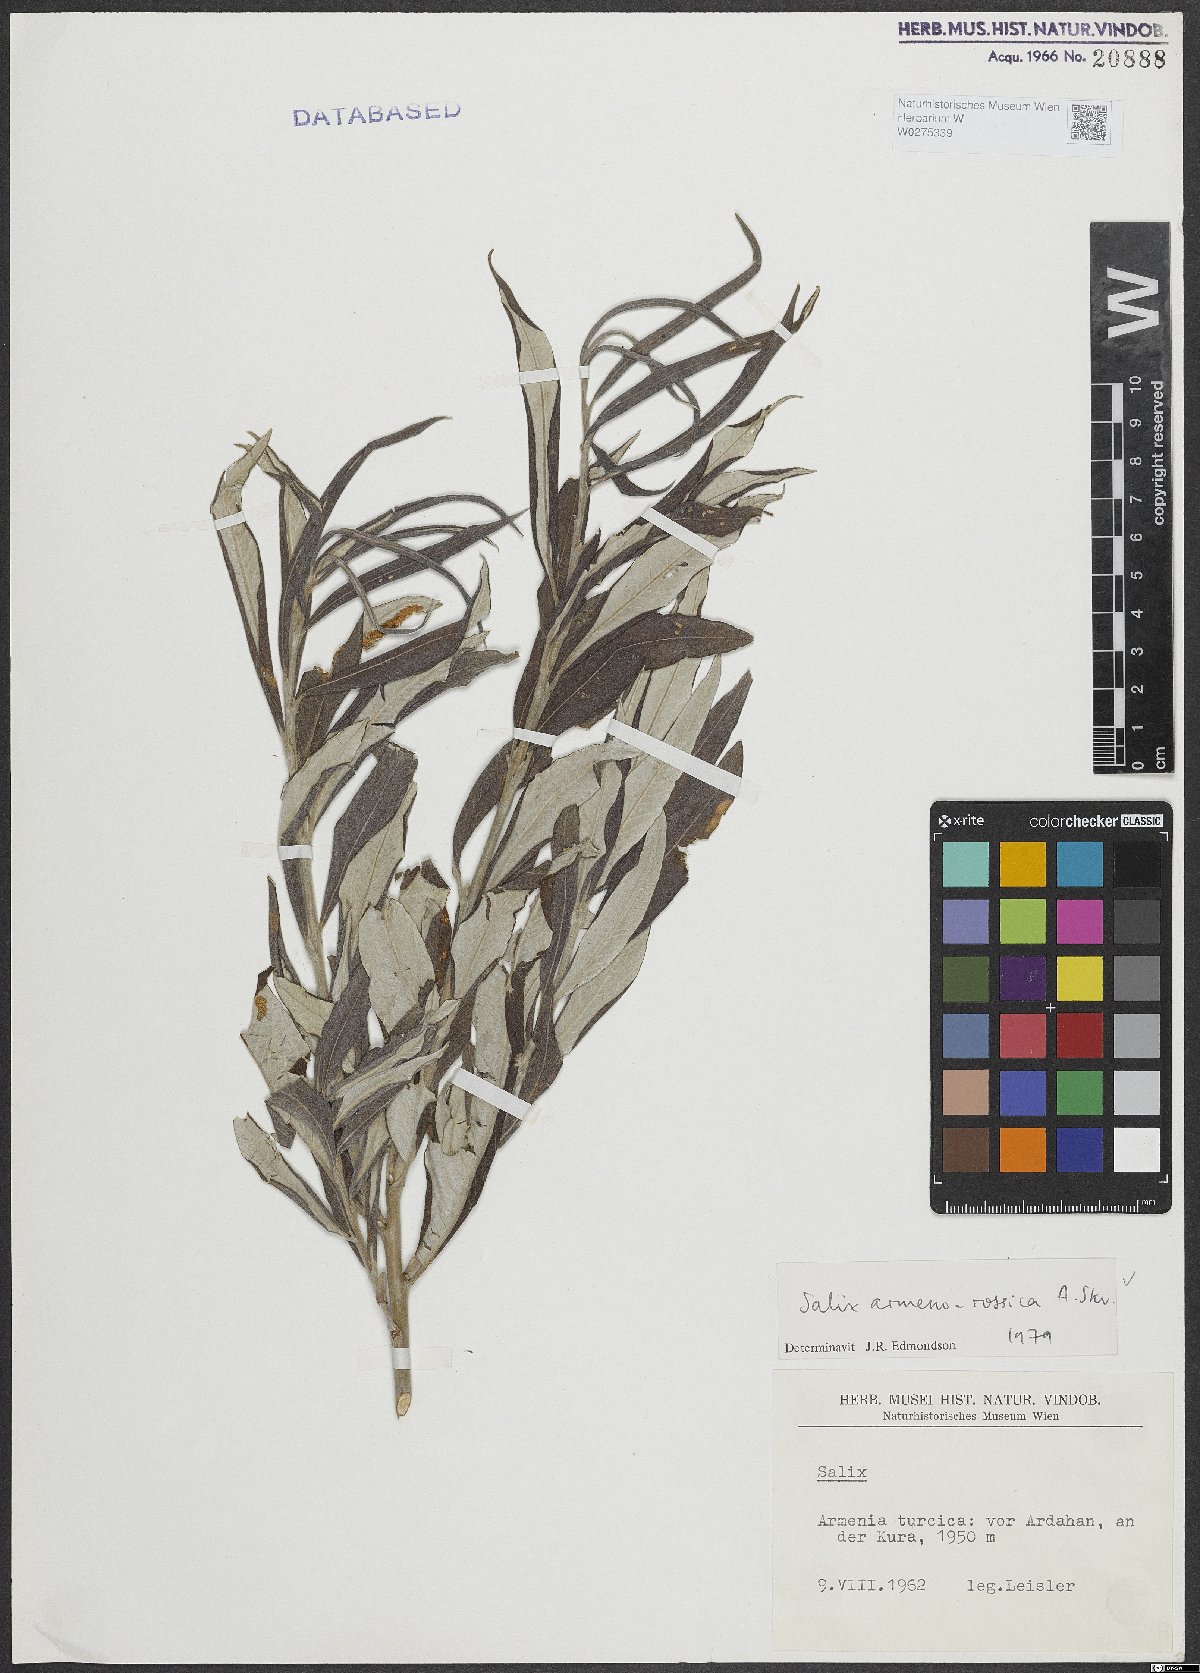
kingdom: Plantae
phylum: Tracheophyta
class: Magnoliopsida
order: Malpighiales
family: Salicaceae
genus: Salix
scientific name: Salix viminalis
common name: Osier
